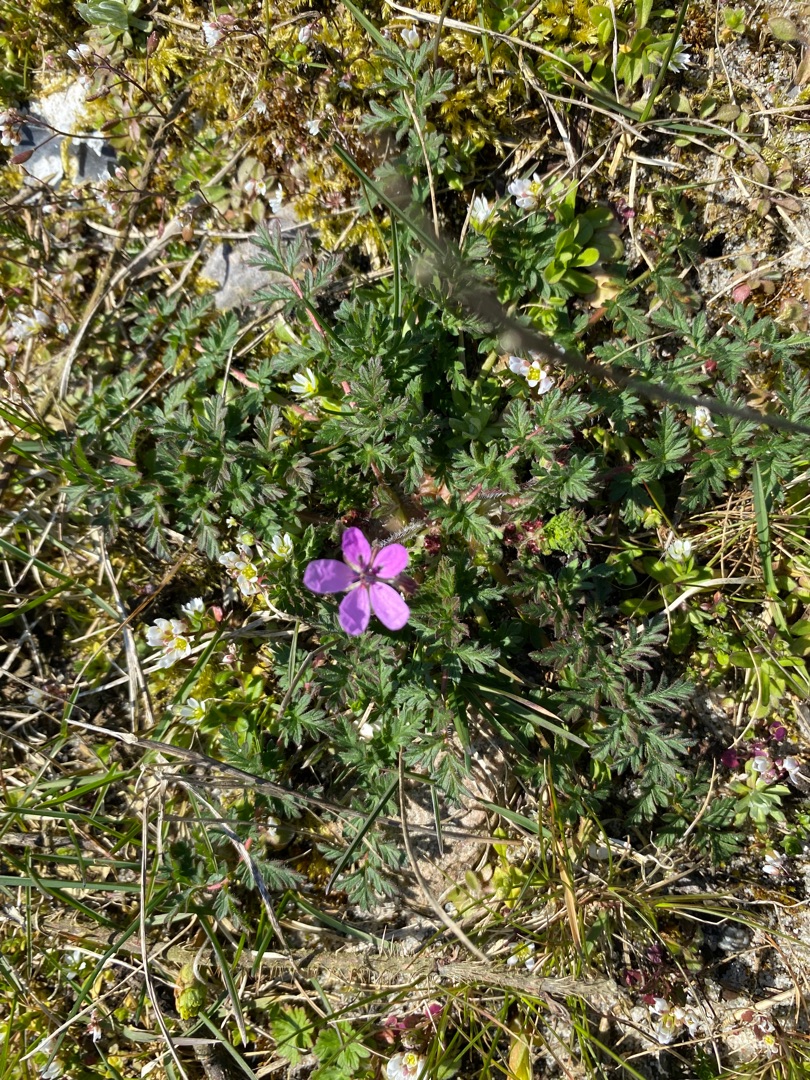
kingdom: Plantae
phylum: Tracheophyta
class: Magnoliopsida
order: Geraniales
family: Geraniaceae
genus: Erodium
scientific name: Erodium cicutarium
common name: Hejrenæb
